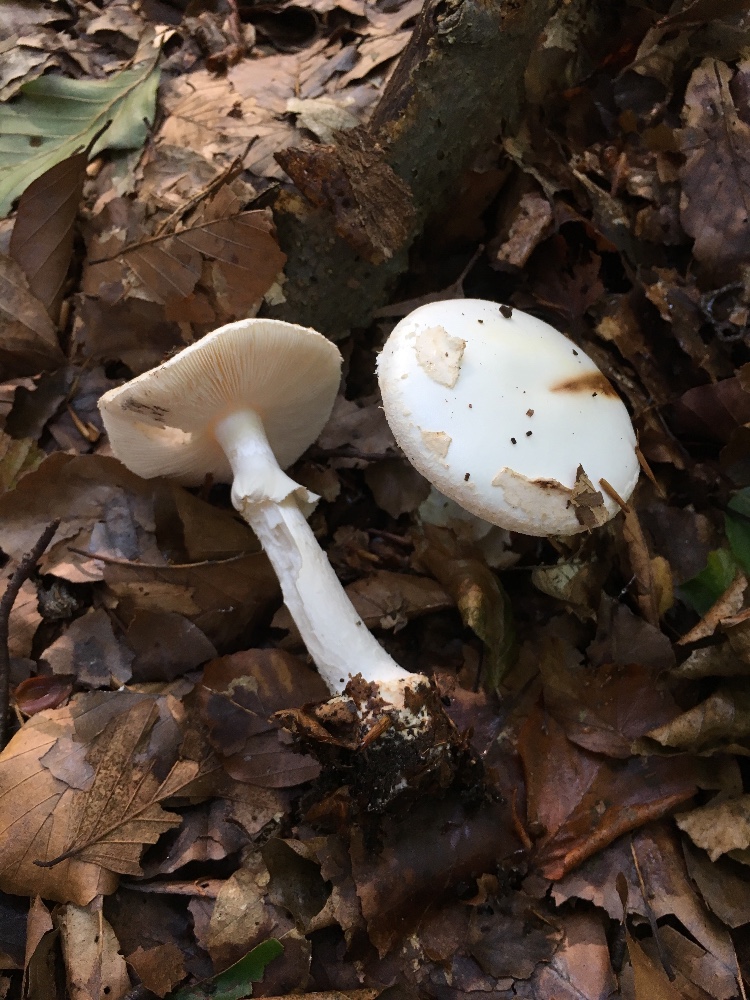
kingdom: Fungi
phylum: Basidiomycota
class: Agaricomycetes
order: Agaricales
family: Amanitaceae
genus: Amanita
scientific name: Amanita citrina
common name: False death-cap
